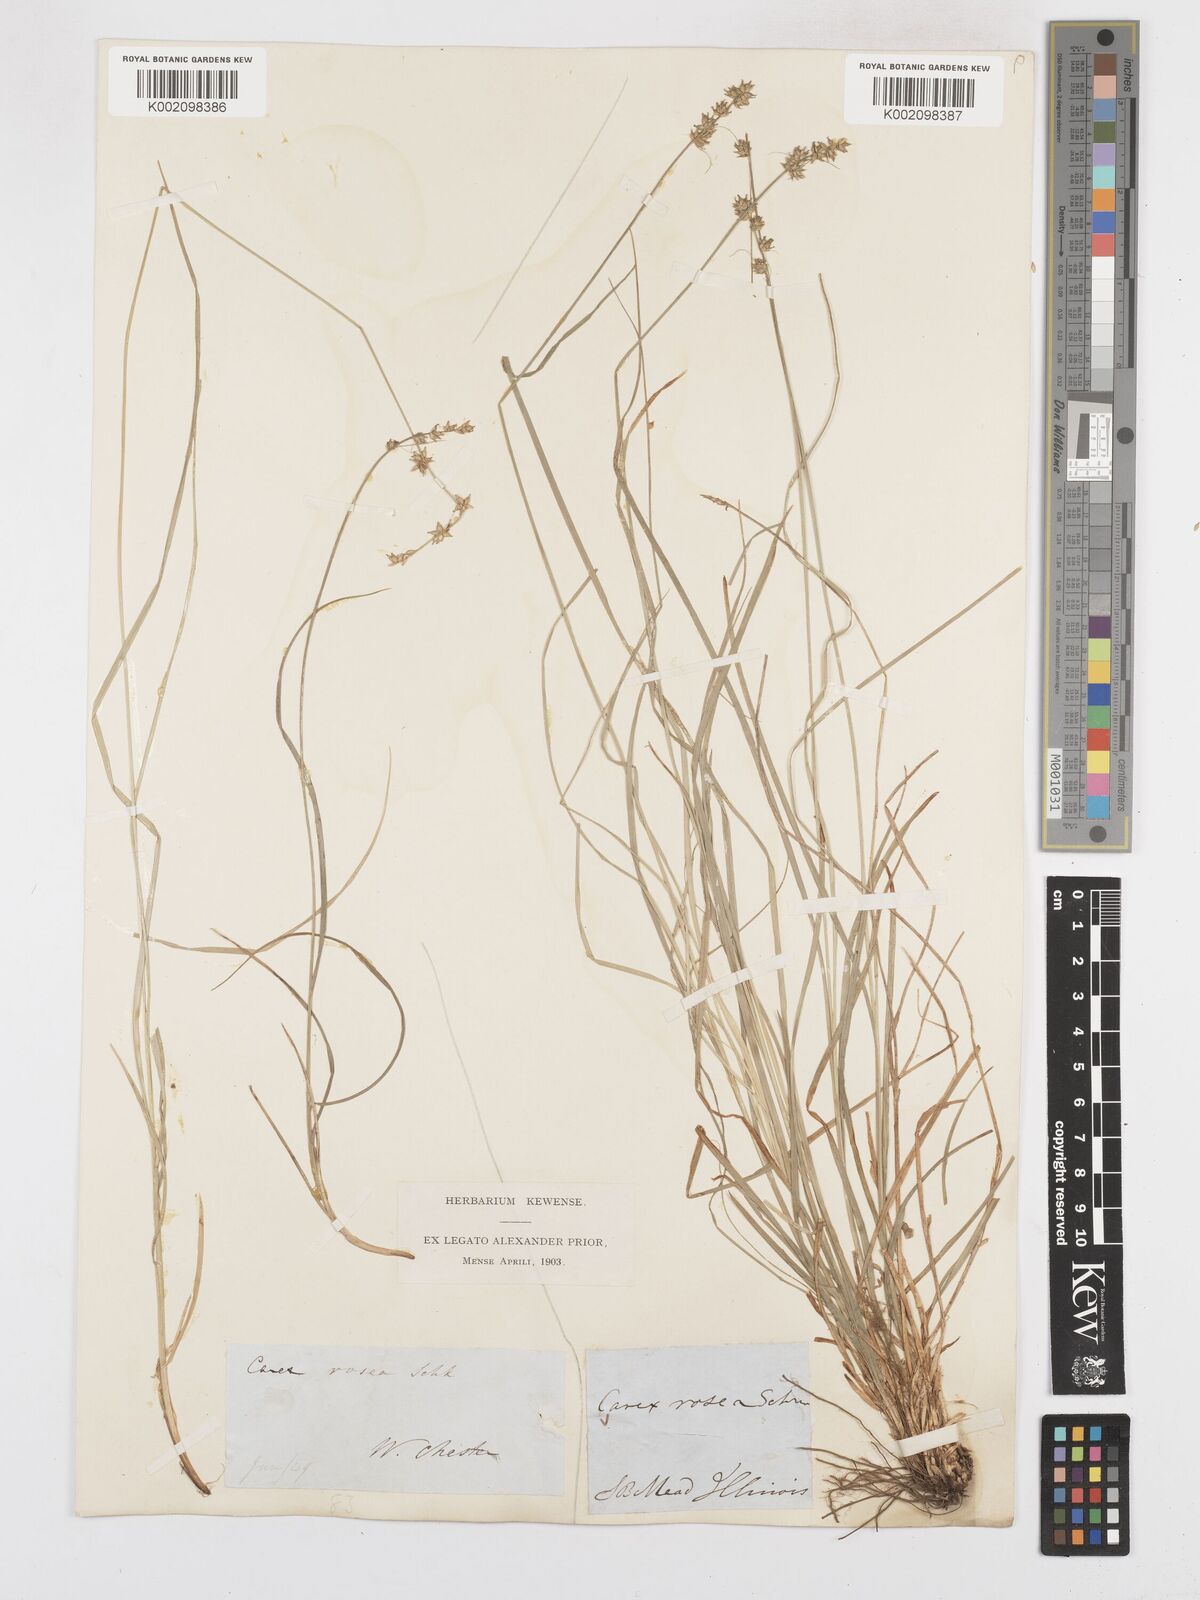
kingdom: Plantae
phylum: Tracheophyta
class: Liliopsida
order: Poales
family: Cyperaceae
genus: Carex
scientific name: Carex rosea
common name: Curly-styled wood sedge
